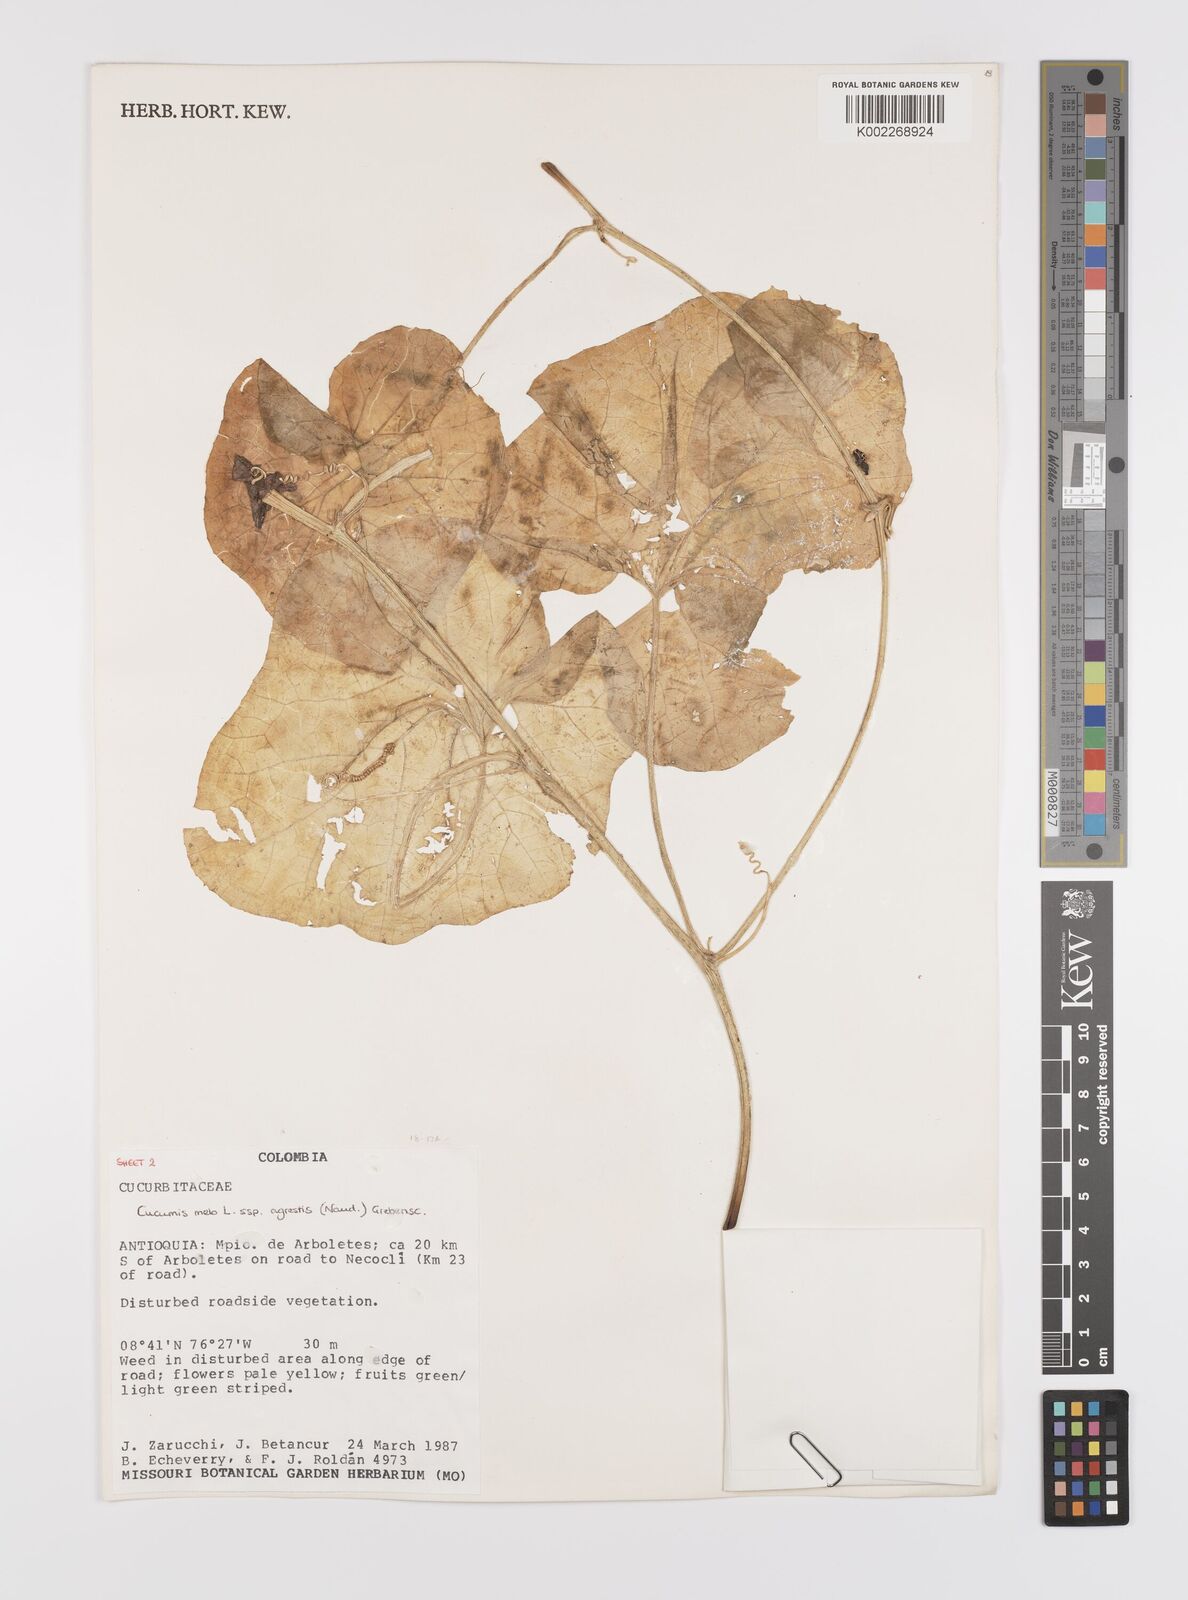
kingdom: Plantae
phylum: Tracheophyta
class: Magnoliopsida
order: Cucurbitales
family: Cucurbitaceae
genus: Cucumis
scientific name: Cucumis melo
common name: Melon
